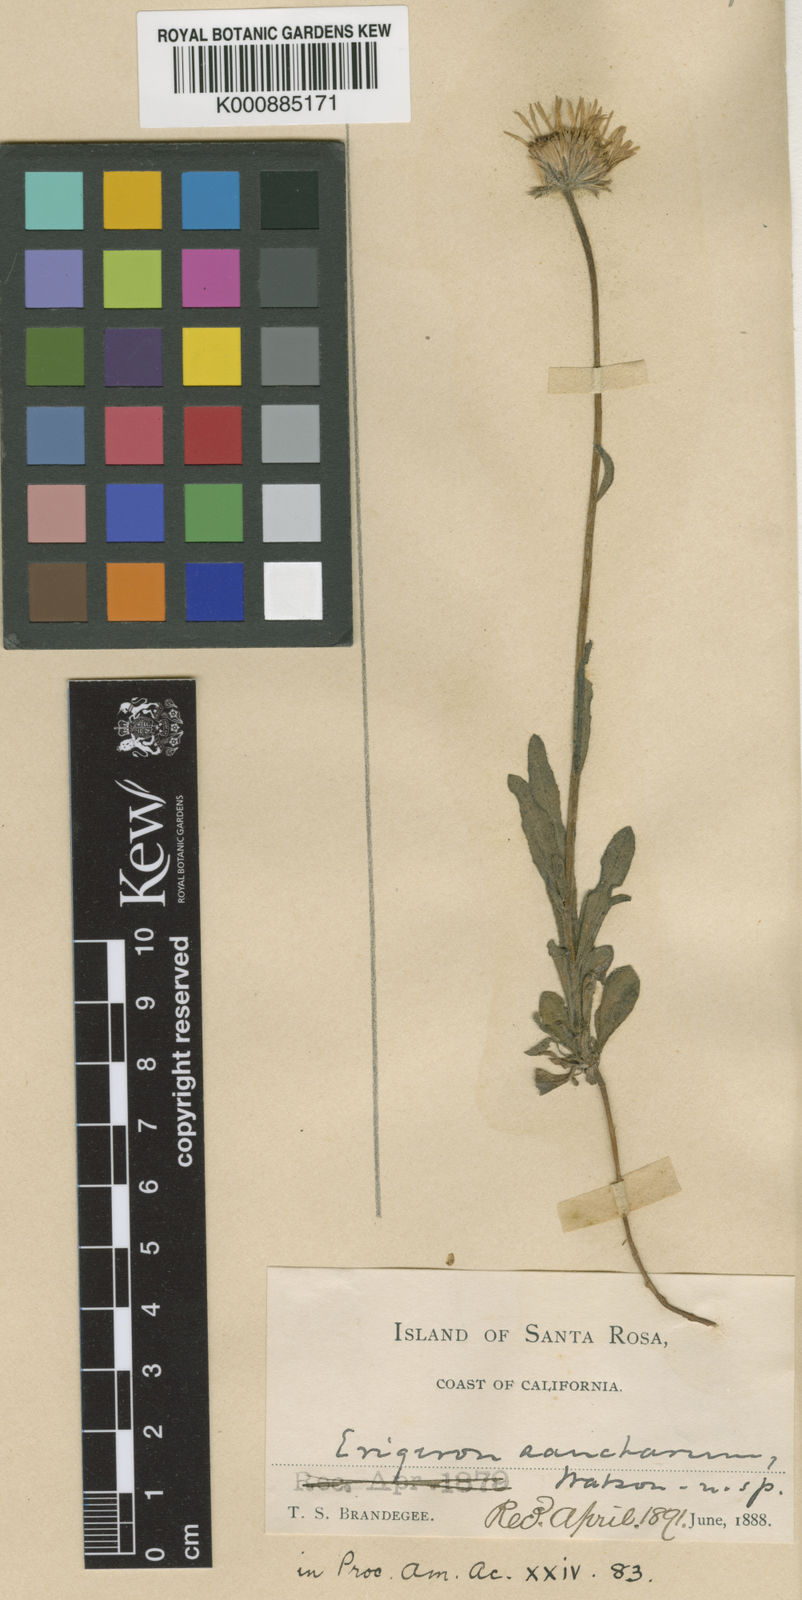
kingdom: Plantae
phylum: Tracheophyta
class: Magnoliopsida
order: Asterales
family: Asteraceae
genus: Erigeron
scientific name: Erigeron
